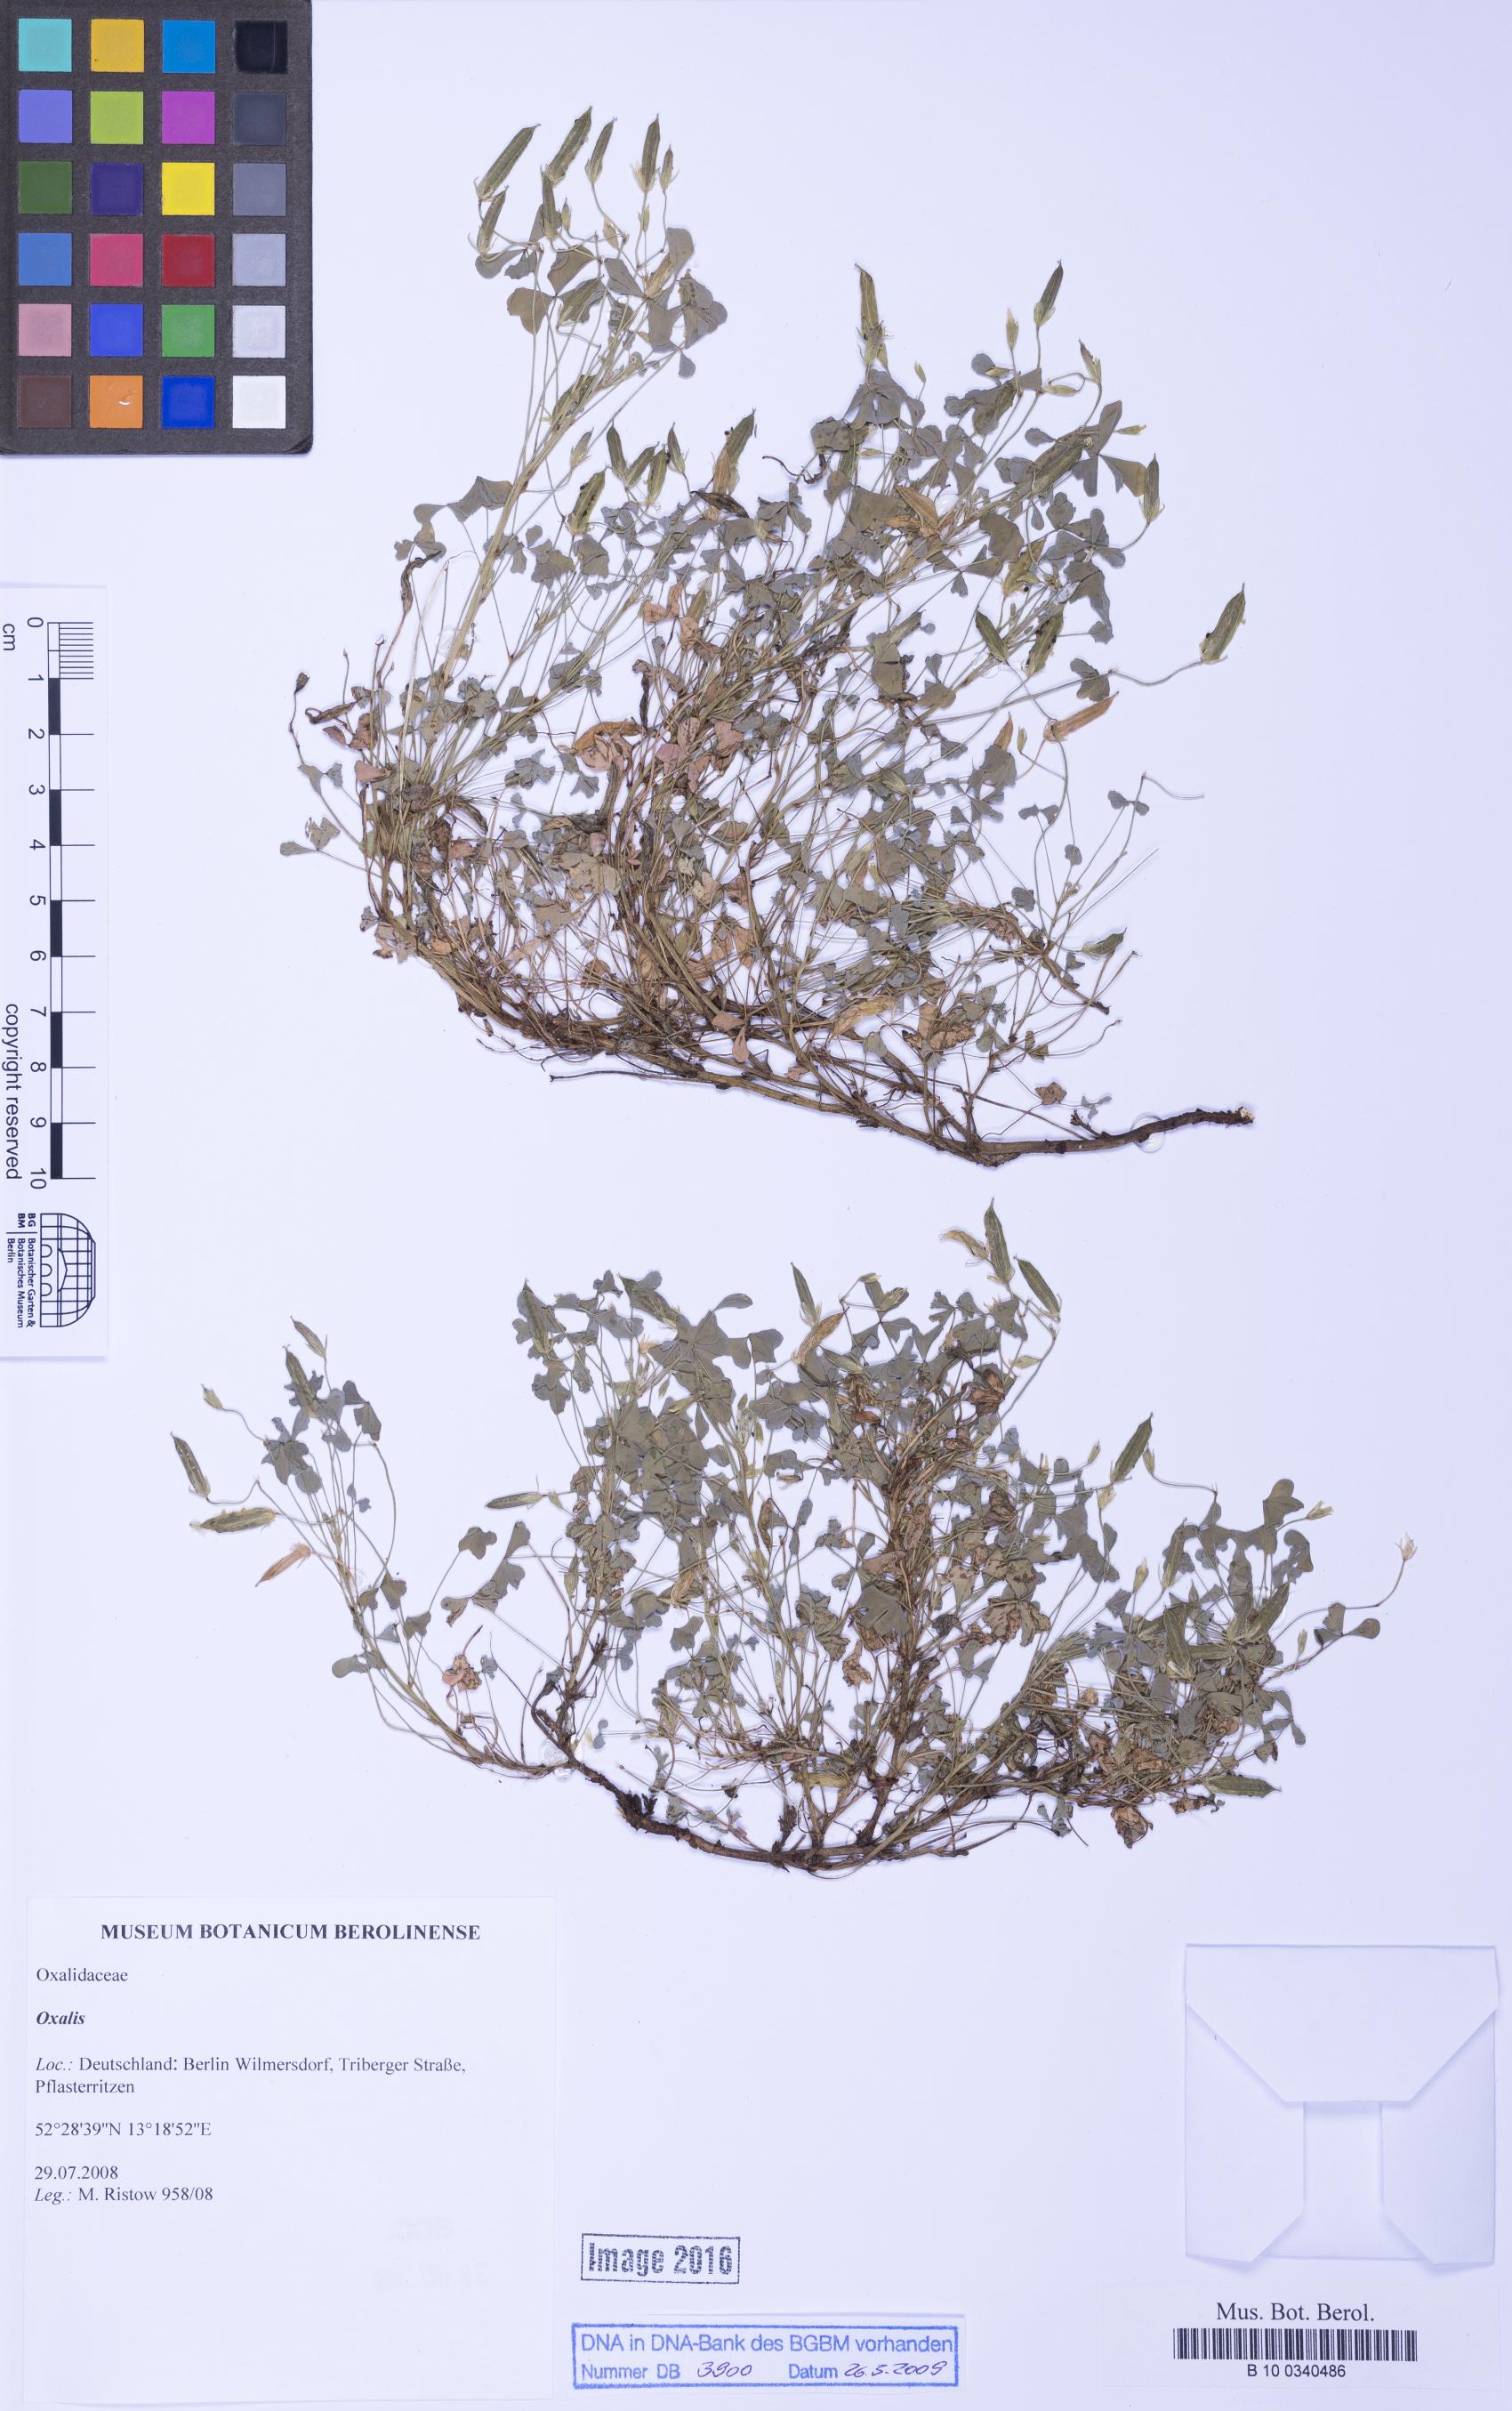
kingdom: Plantae
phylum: Tracheophyta
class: Magnoliopsida
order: Oxalidales
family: Oxalidaceae
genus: Oxalis
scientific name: Oxalis
